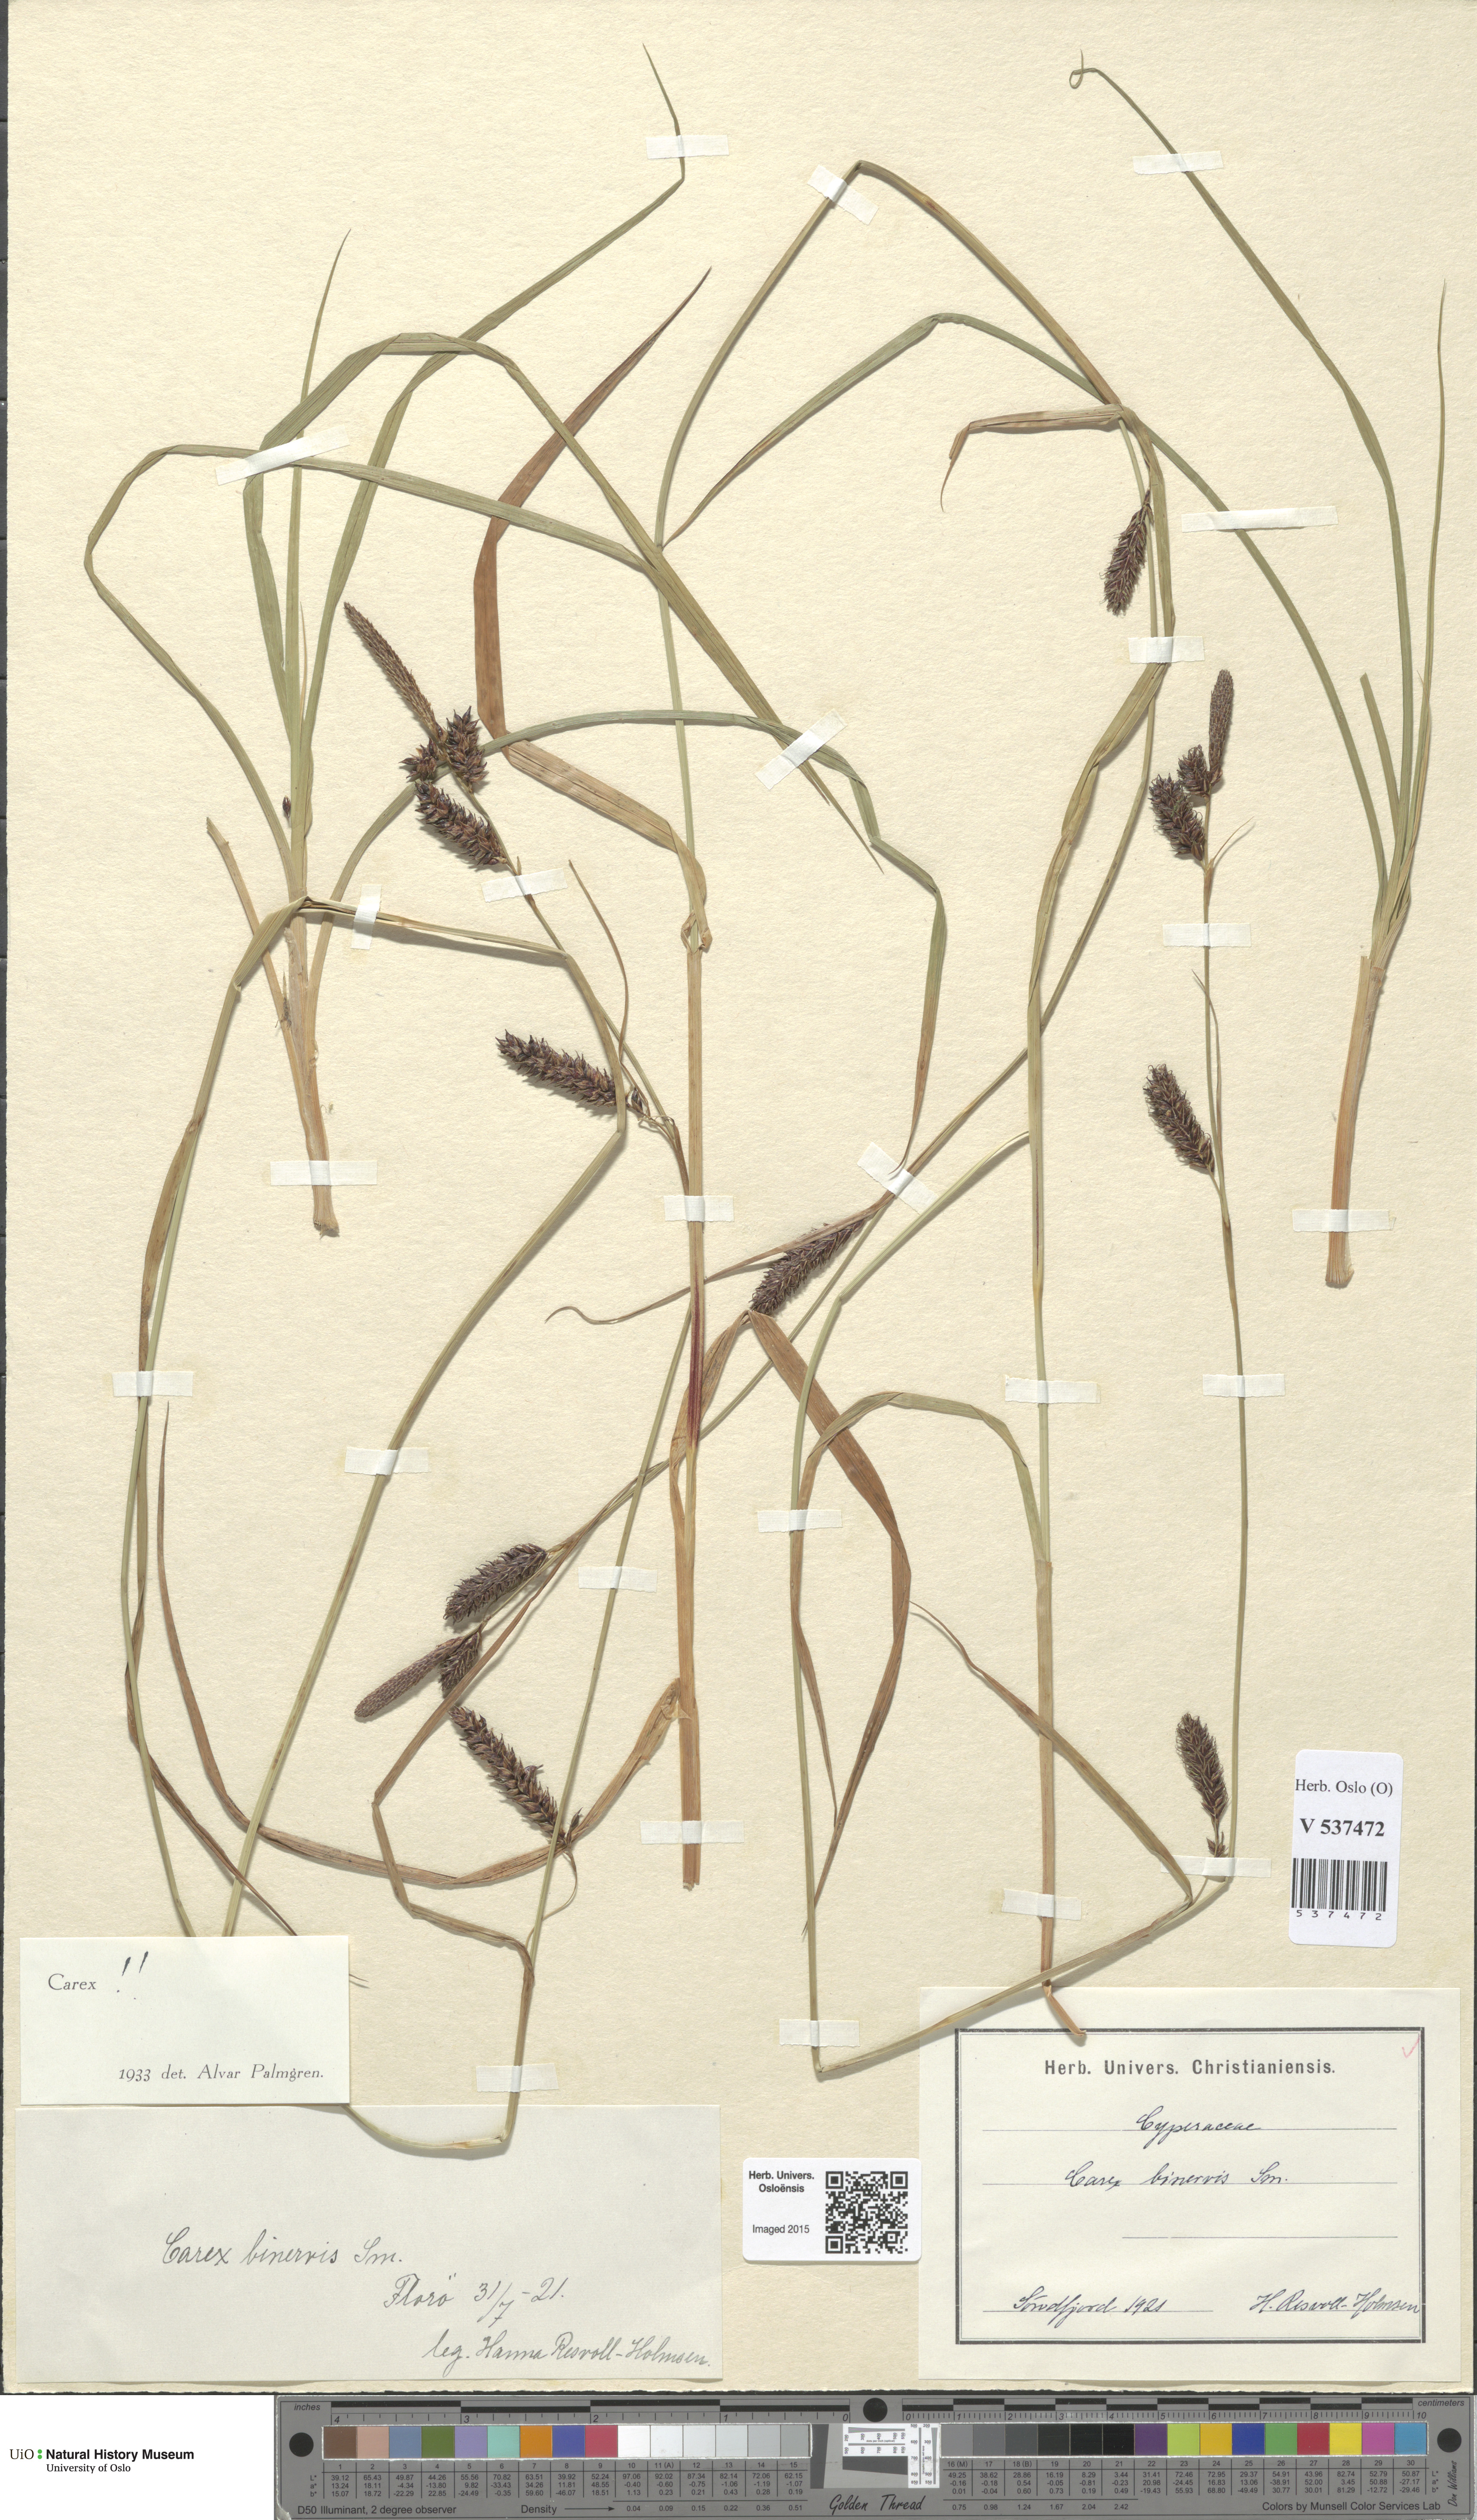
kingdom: Plantae
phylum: Tracheophyta
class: Liliopsida
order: Poales
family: Cyperaceae
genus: Carex
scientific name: Carex binervis
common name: Green-ribbed sedge
